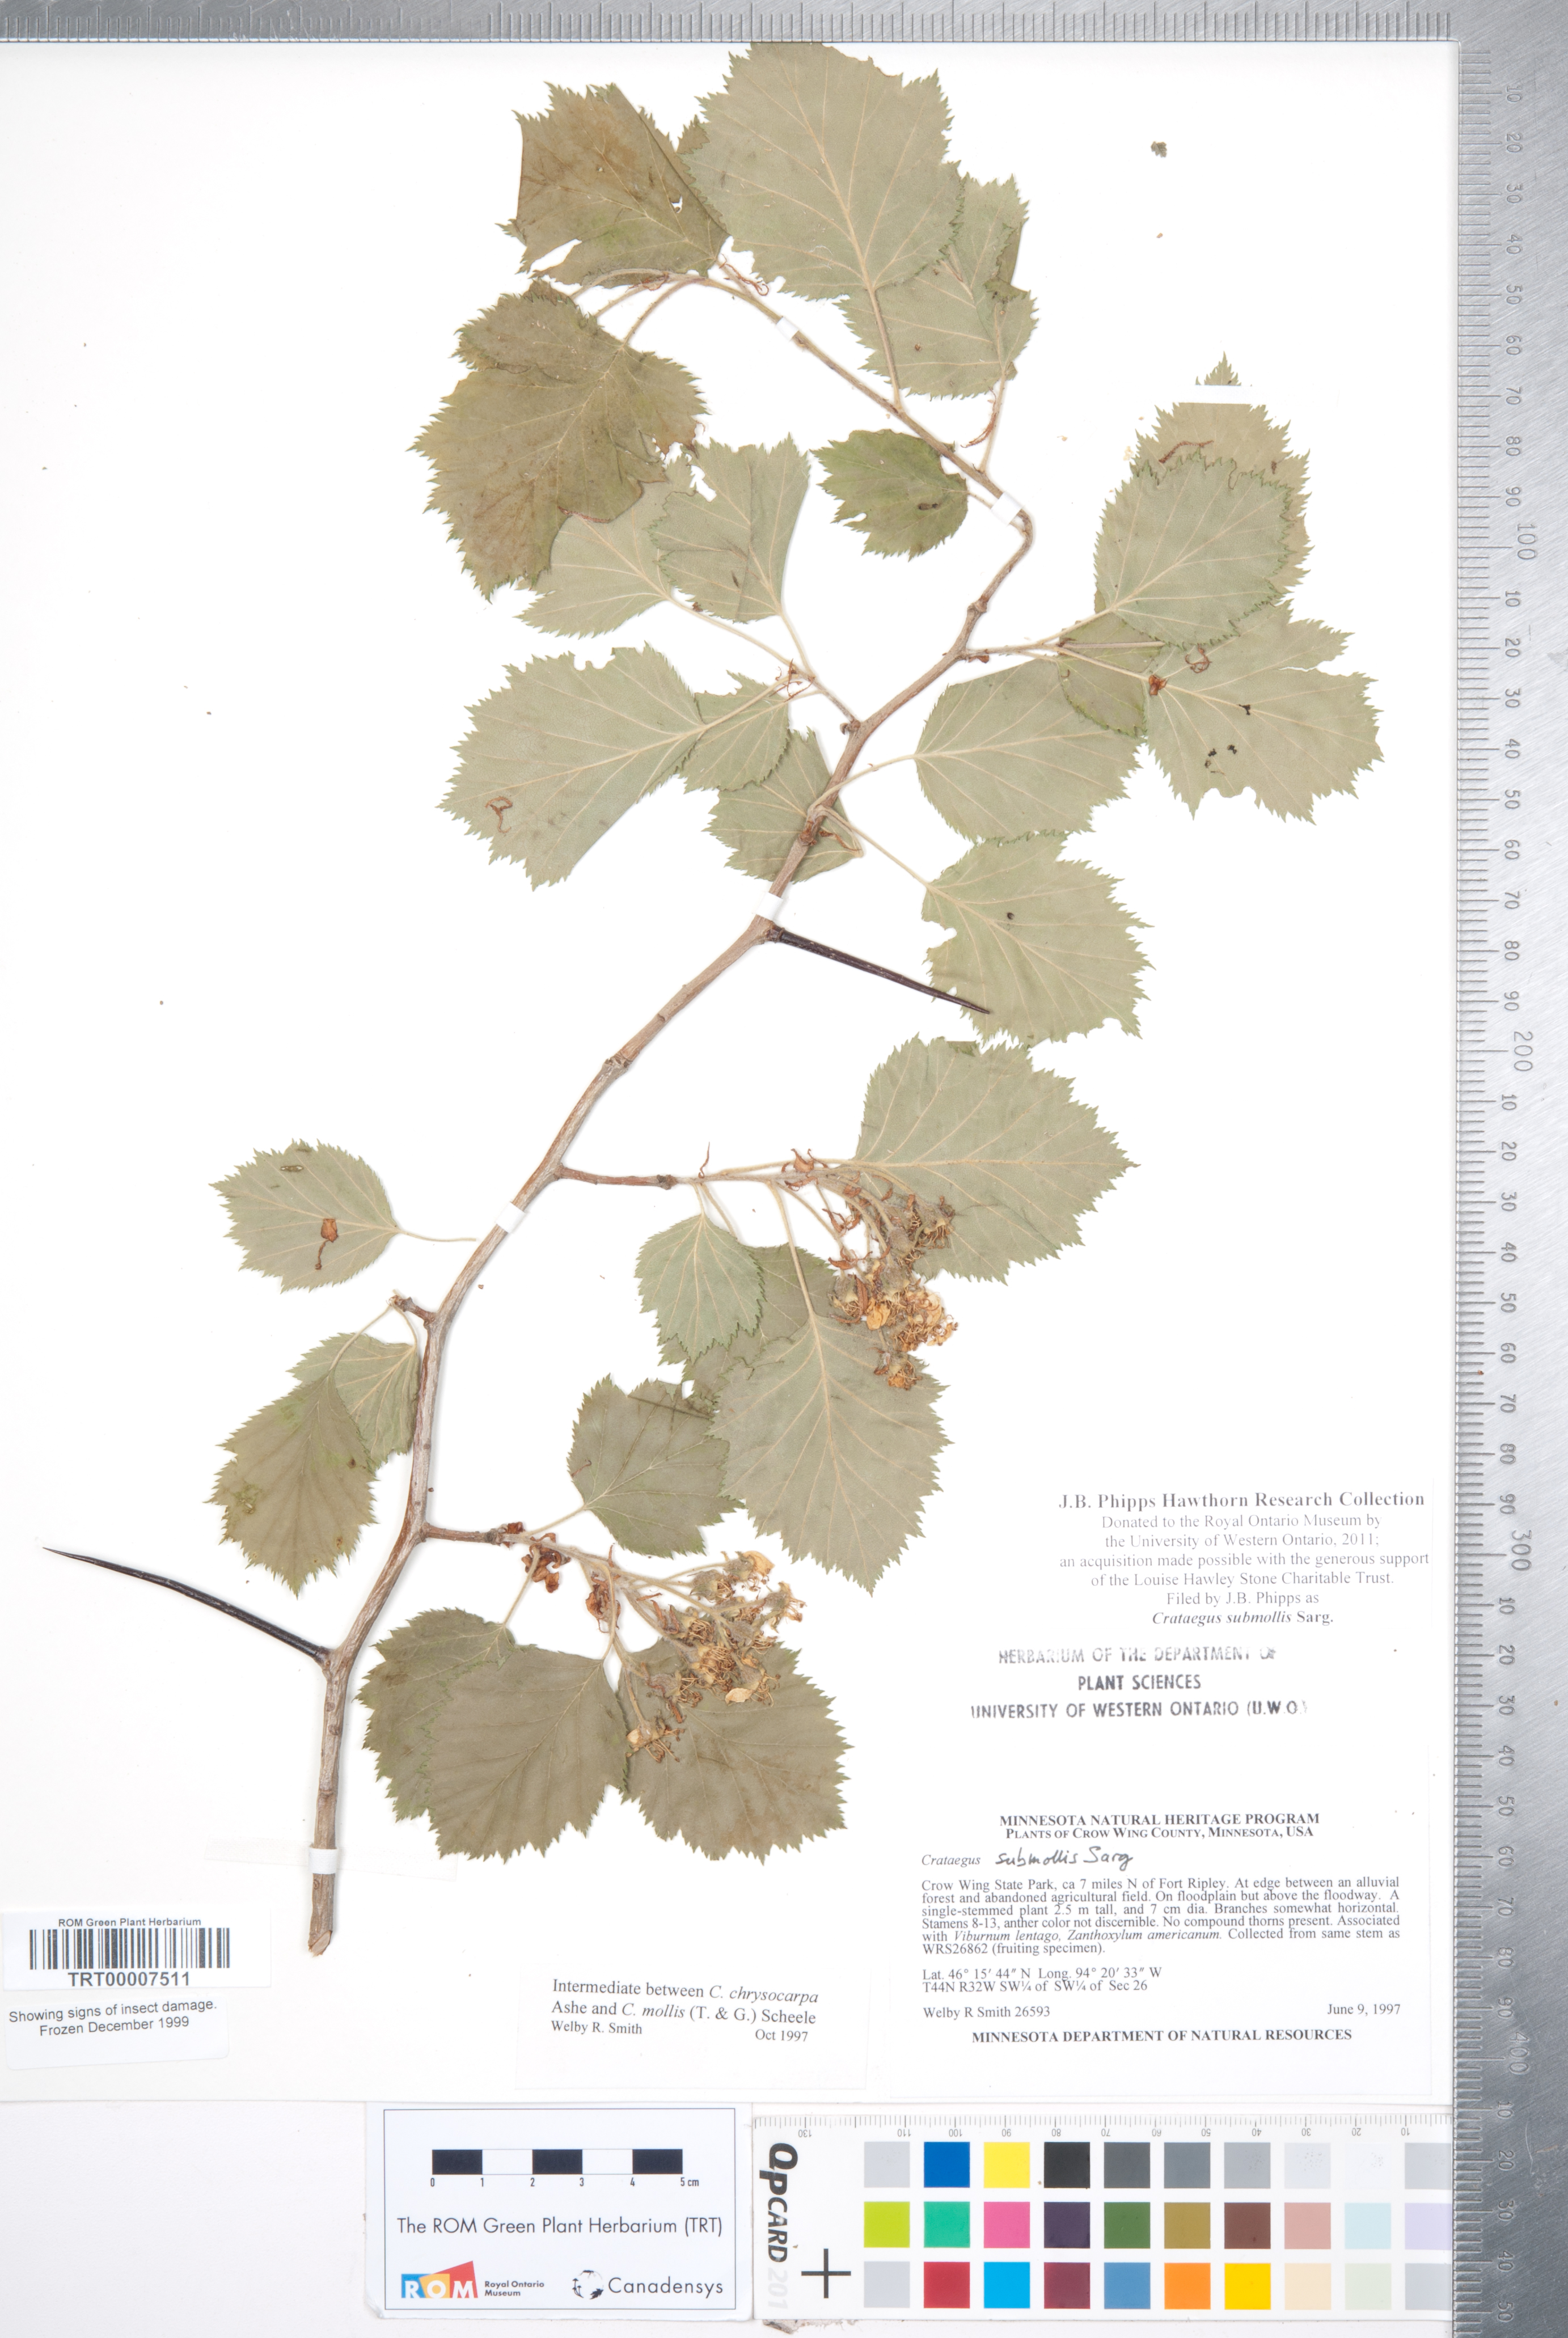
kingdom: Plantae
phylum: Tracheophyta
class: Magnoliopsida
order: Rosales
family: Rosaceae
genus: Crataegus
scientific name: Crataegus submollis
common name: Hairy cockspurthorn
